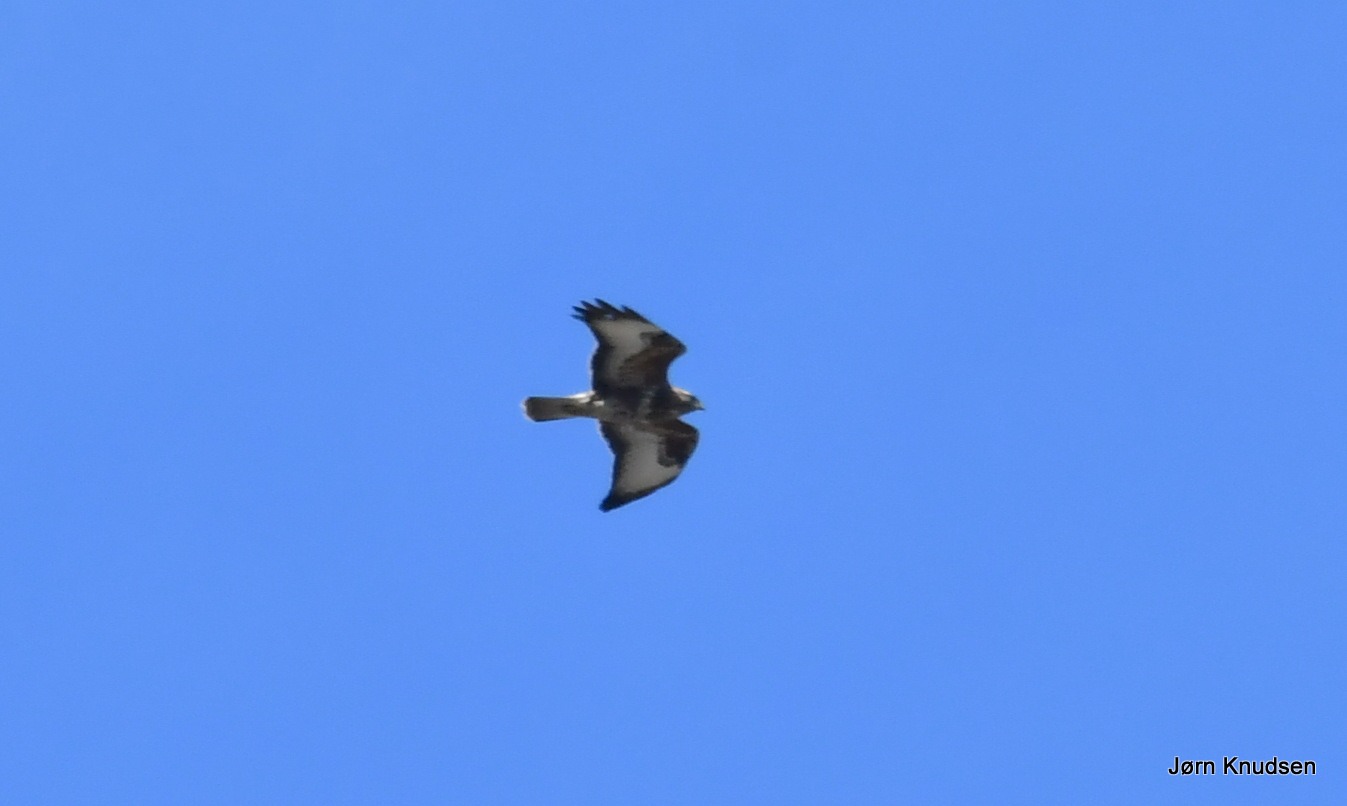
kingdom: Animalia
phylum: Chordata
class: Aves
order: Accipitriformes
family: Accipitridae
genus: Buteo
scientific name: Buteo buteo
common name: Musvåge
